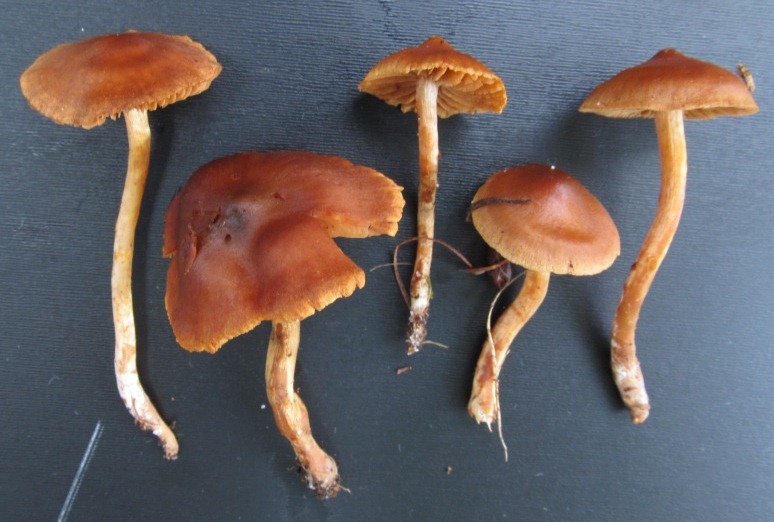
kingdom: Fungi
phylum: Basidiomycota
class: Agaricomycetes
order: Agaricales
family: Cortinariaceae
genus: Cortinarius
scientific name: Cortinarius saniosus
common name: gultrævlet slørhat
